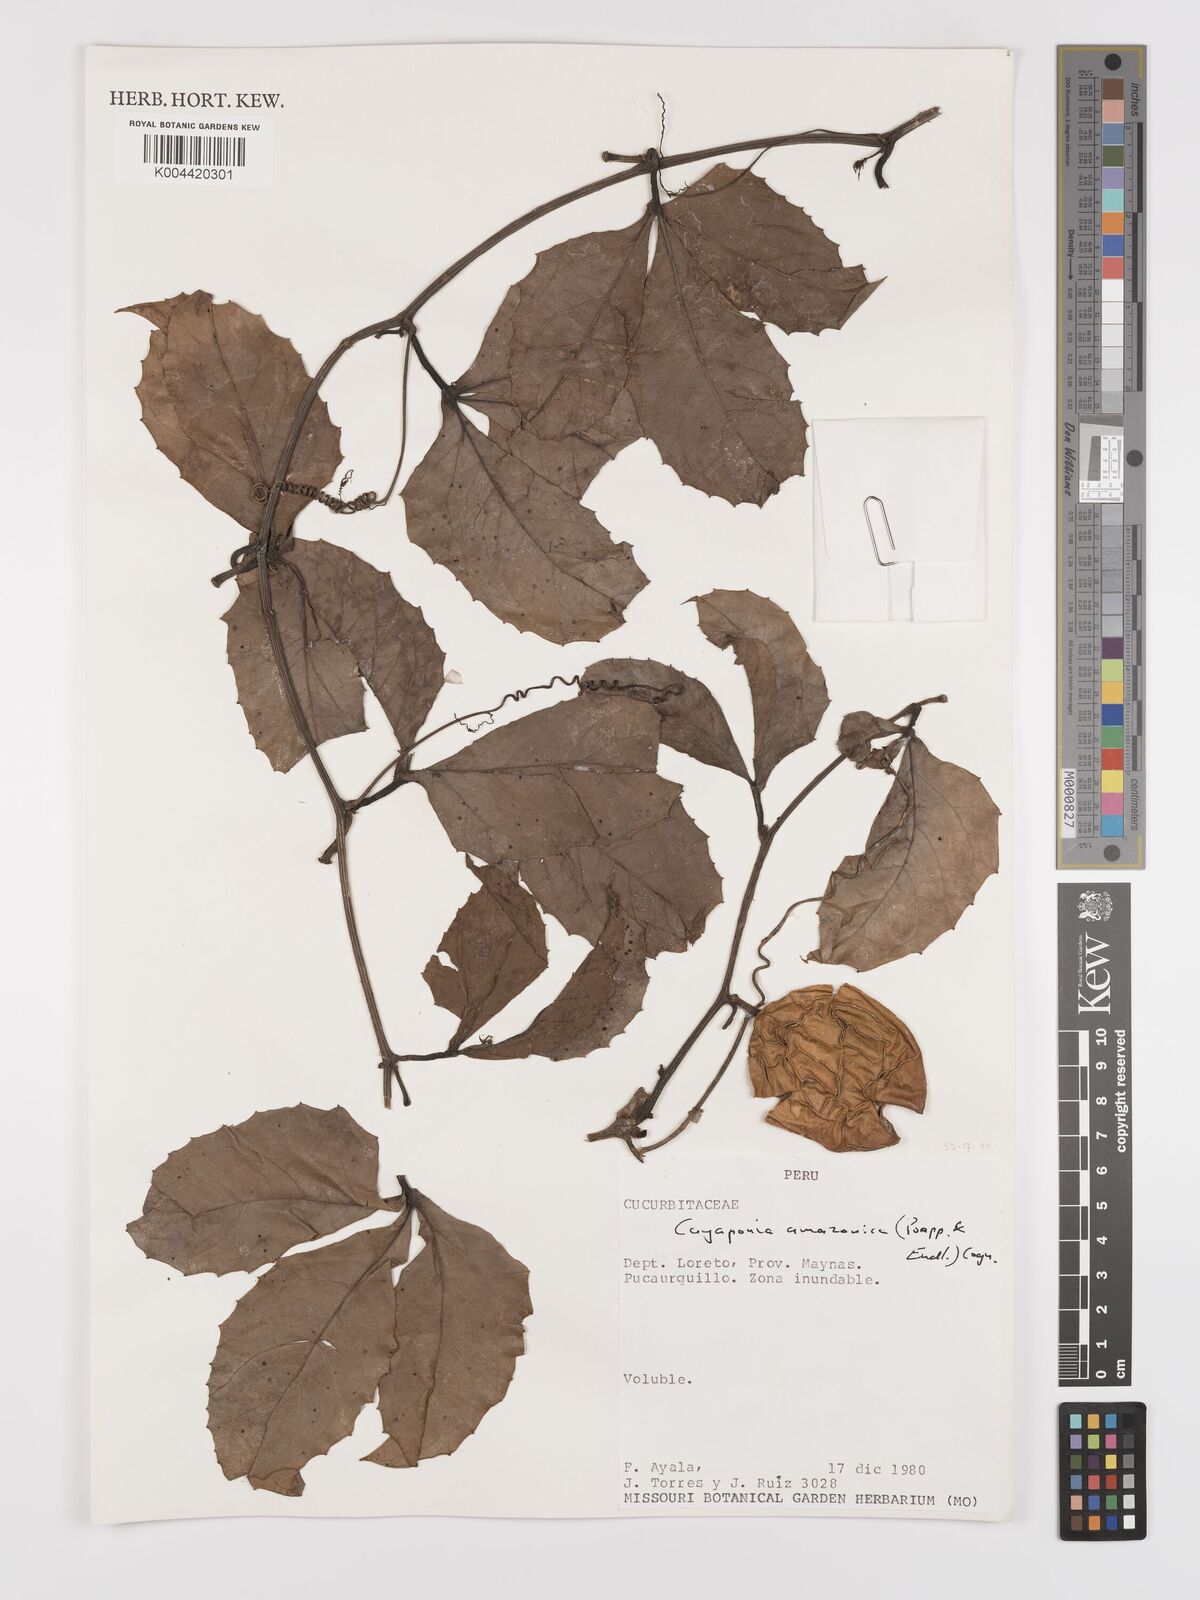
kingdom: Plantae
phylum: Tracheophyta
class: Magnoliopsida
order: Cucurbitales
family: Cucurbitaceae
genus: Cayaponia
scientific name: Cayaponia amazonica
